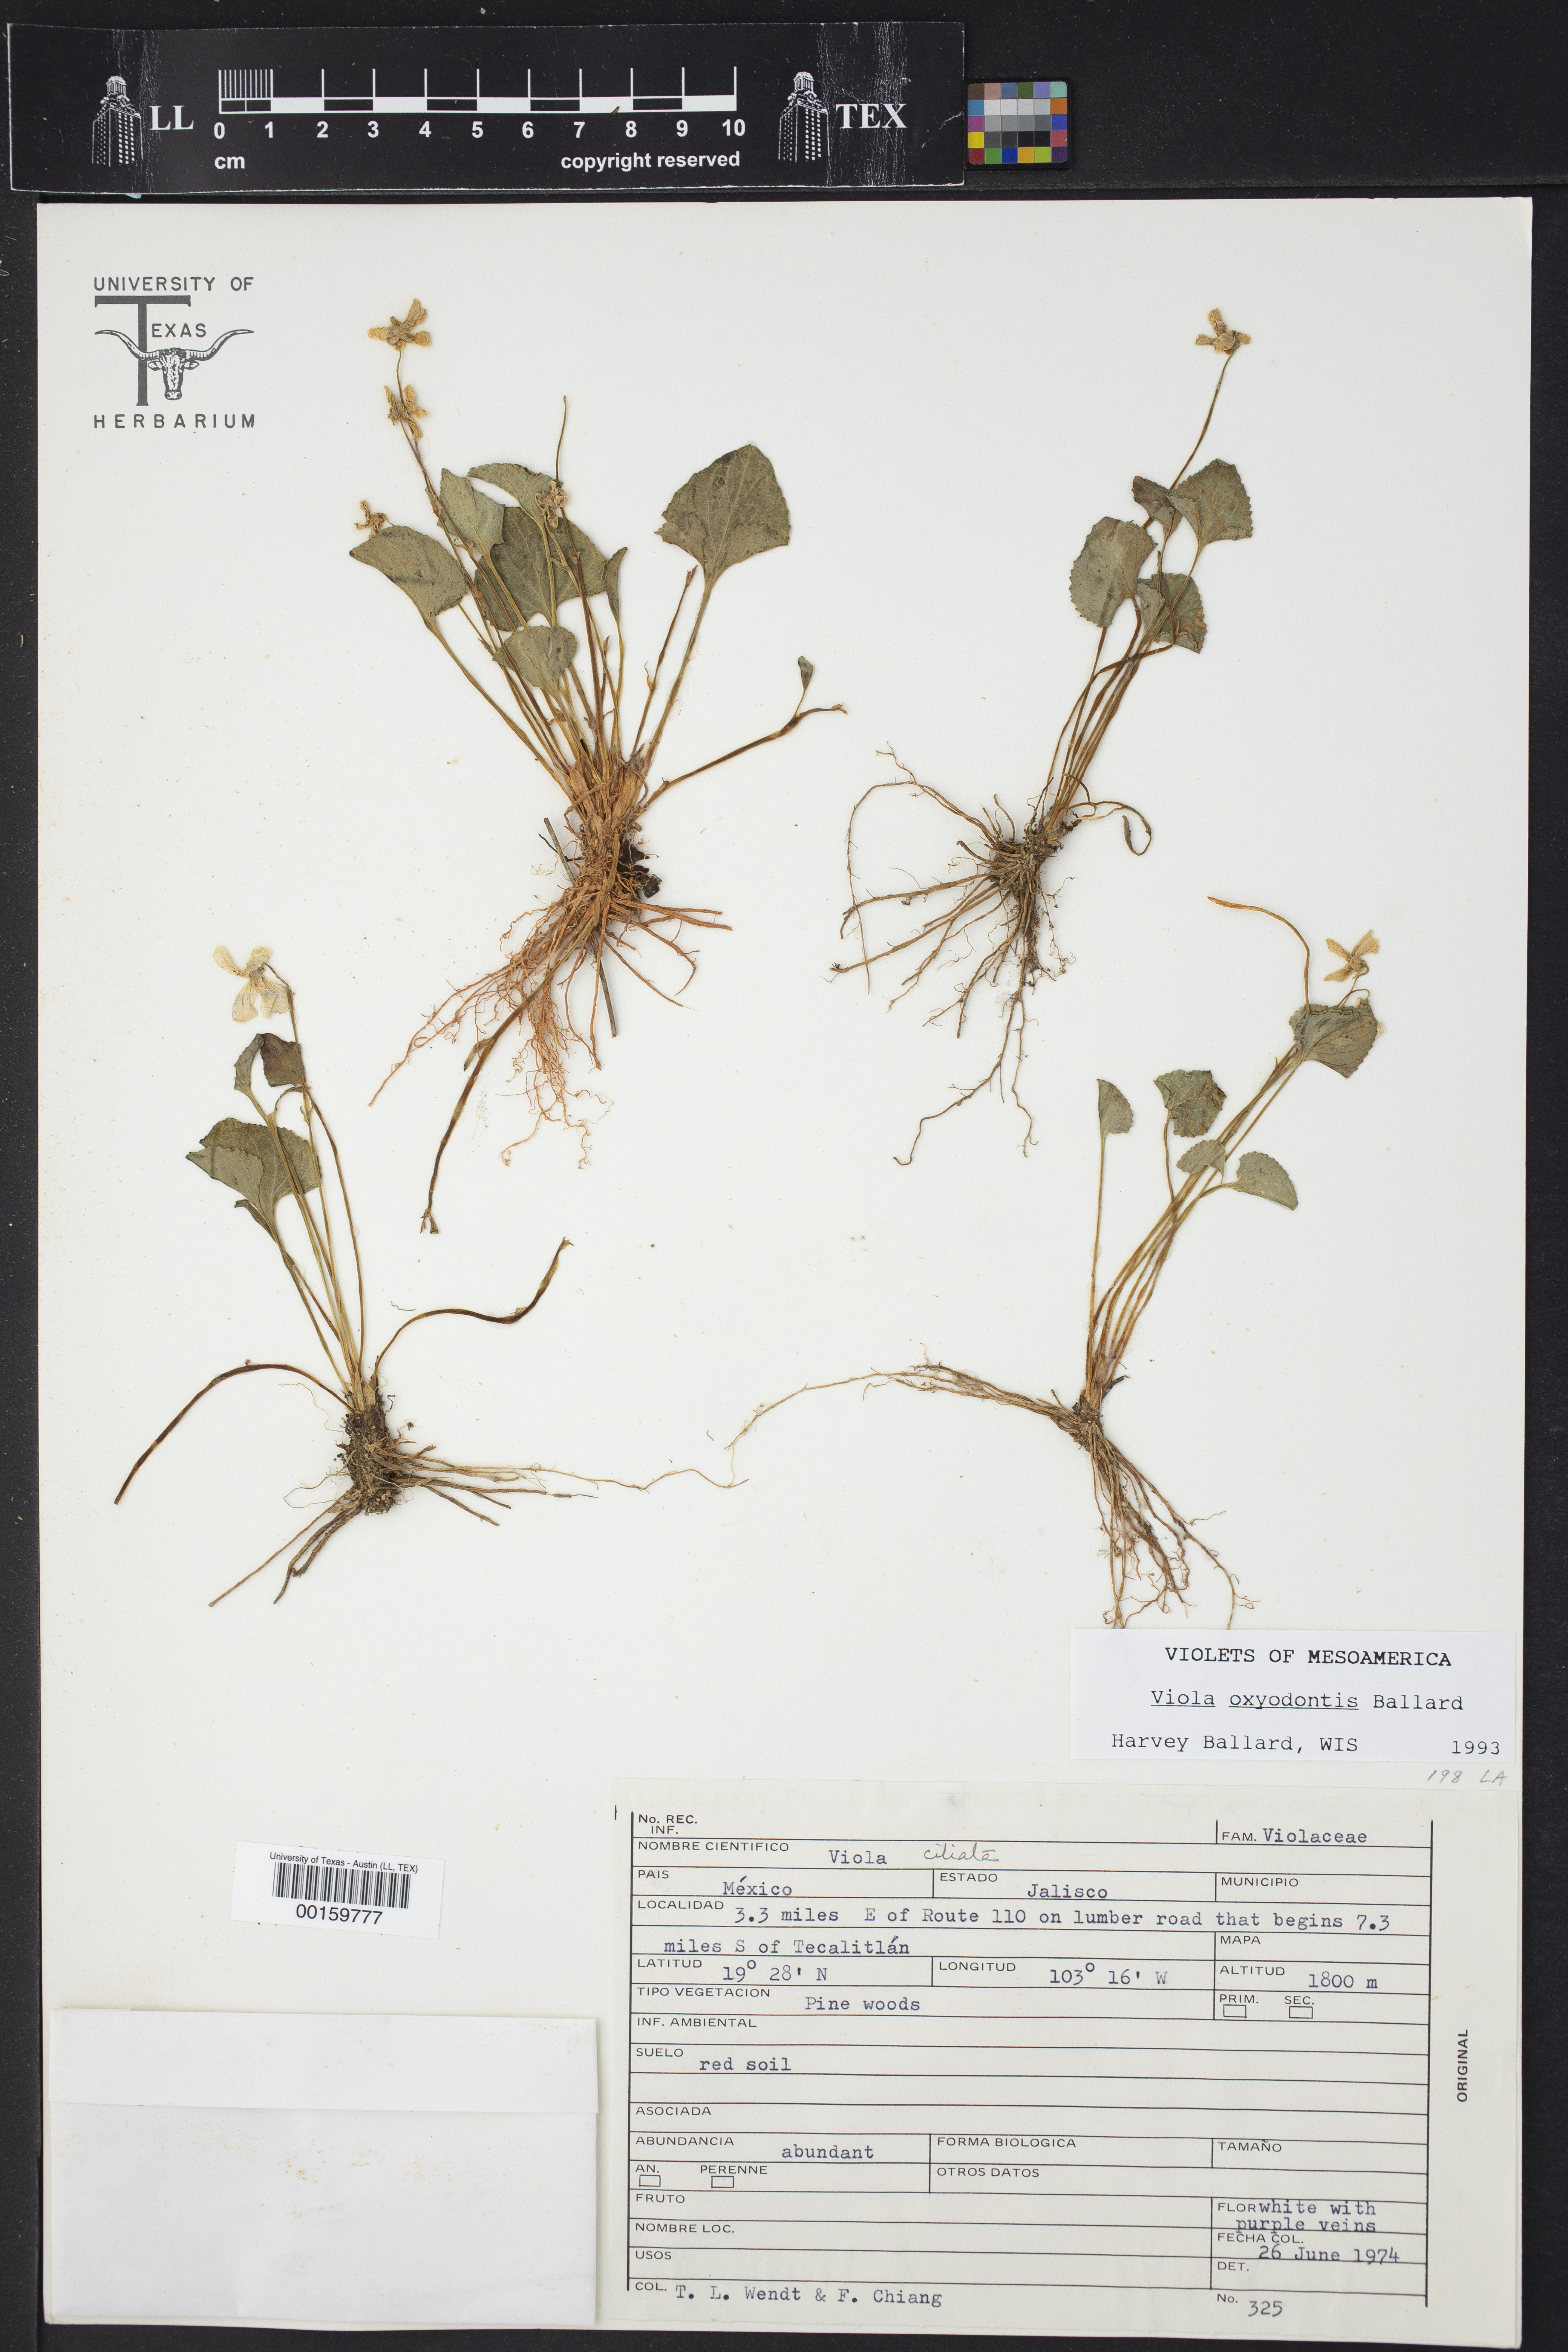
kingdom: Plantae
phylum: Tracheophyta
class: Magnoliopsida
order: Malpighiales
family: Violaceae
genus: Viola
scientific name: Viola oxyodontis
